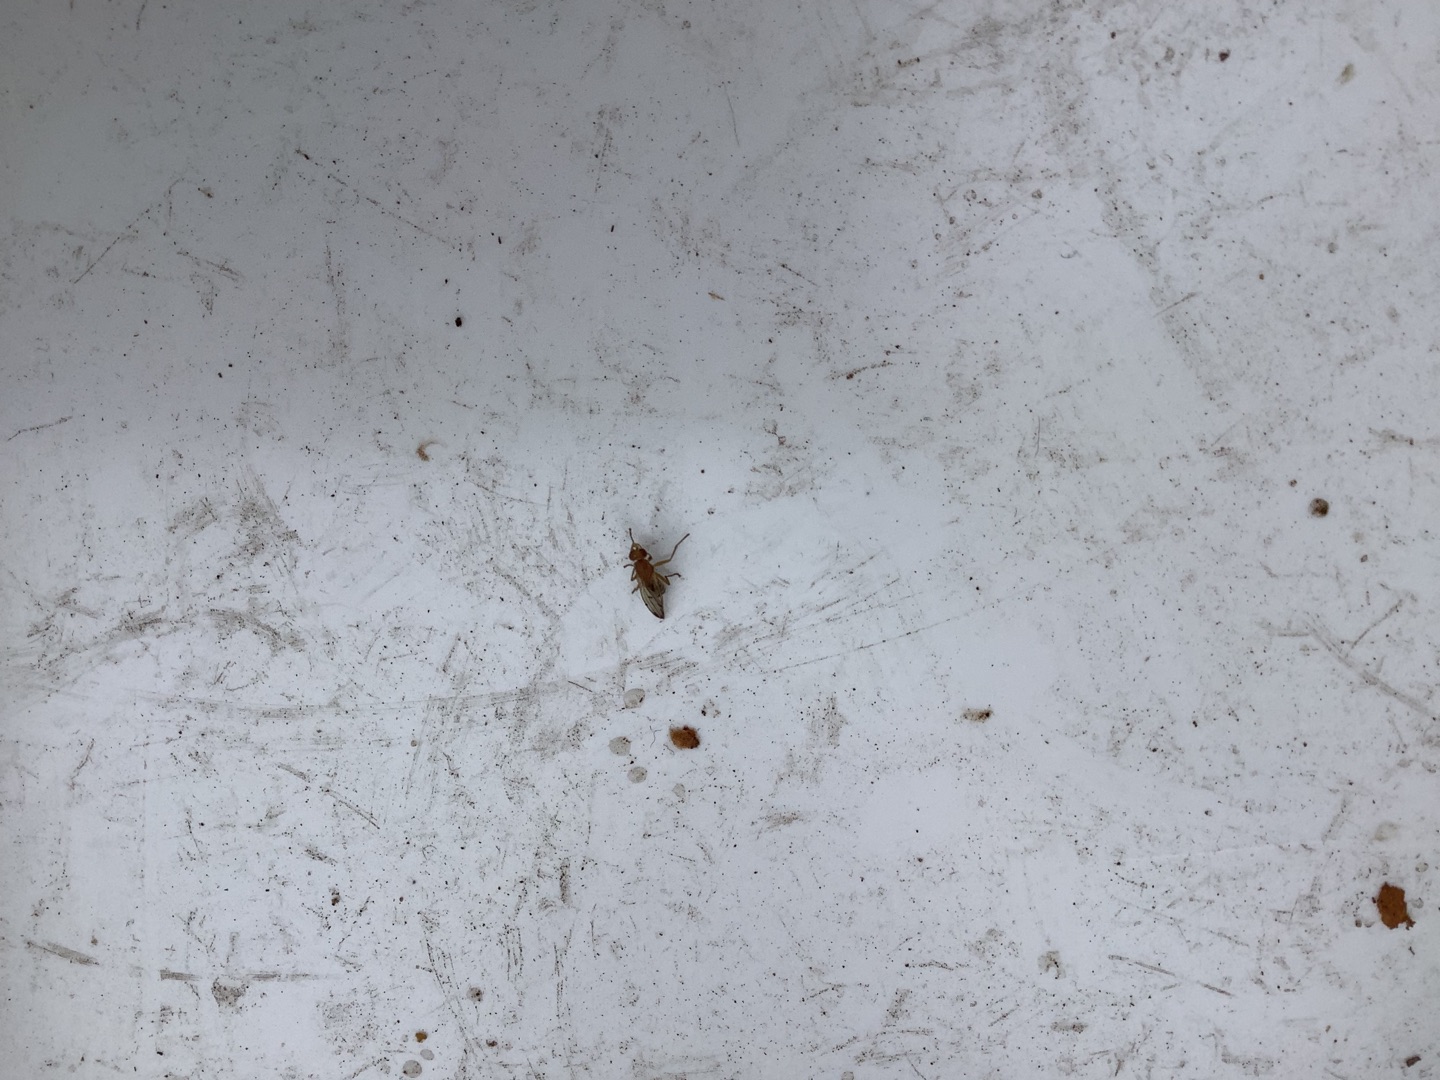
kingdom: Animalia
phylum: Arthropoda
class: Insecta
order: Diptera
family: Dryomyzidae
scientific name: Dryomyzidae
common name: Buskfluer
